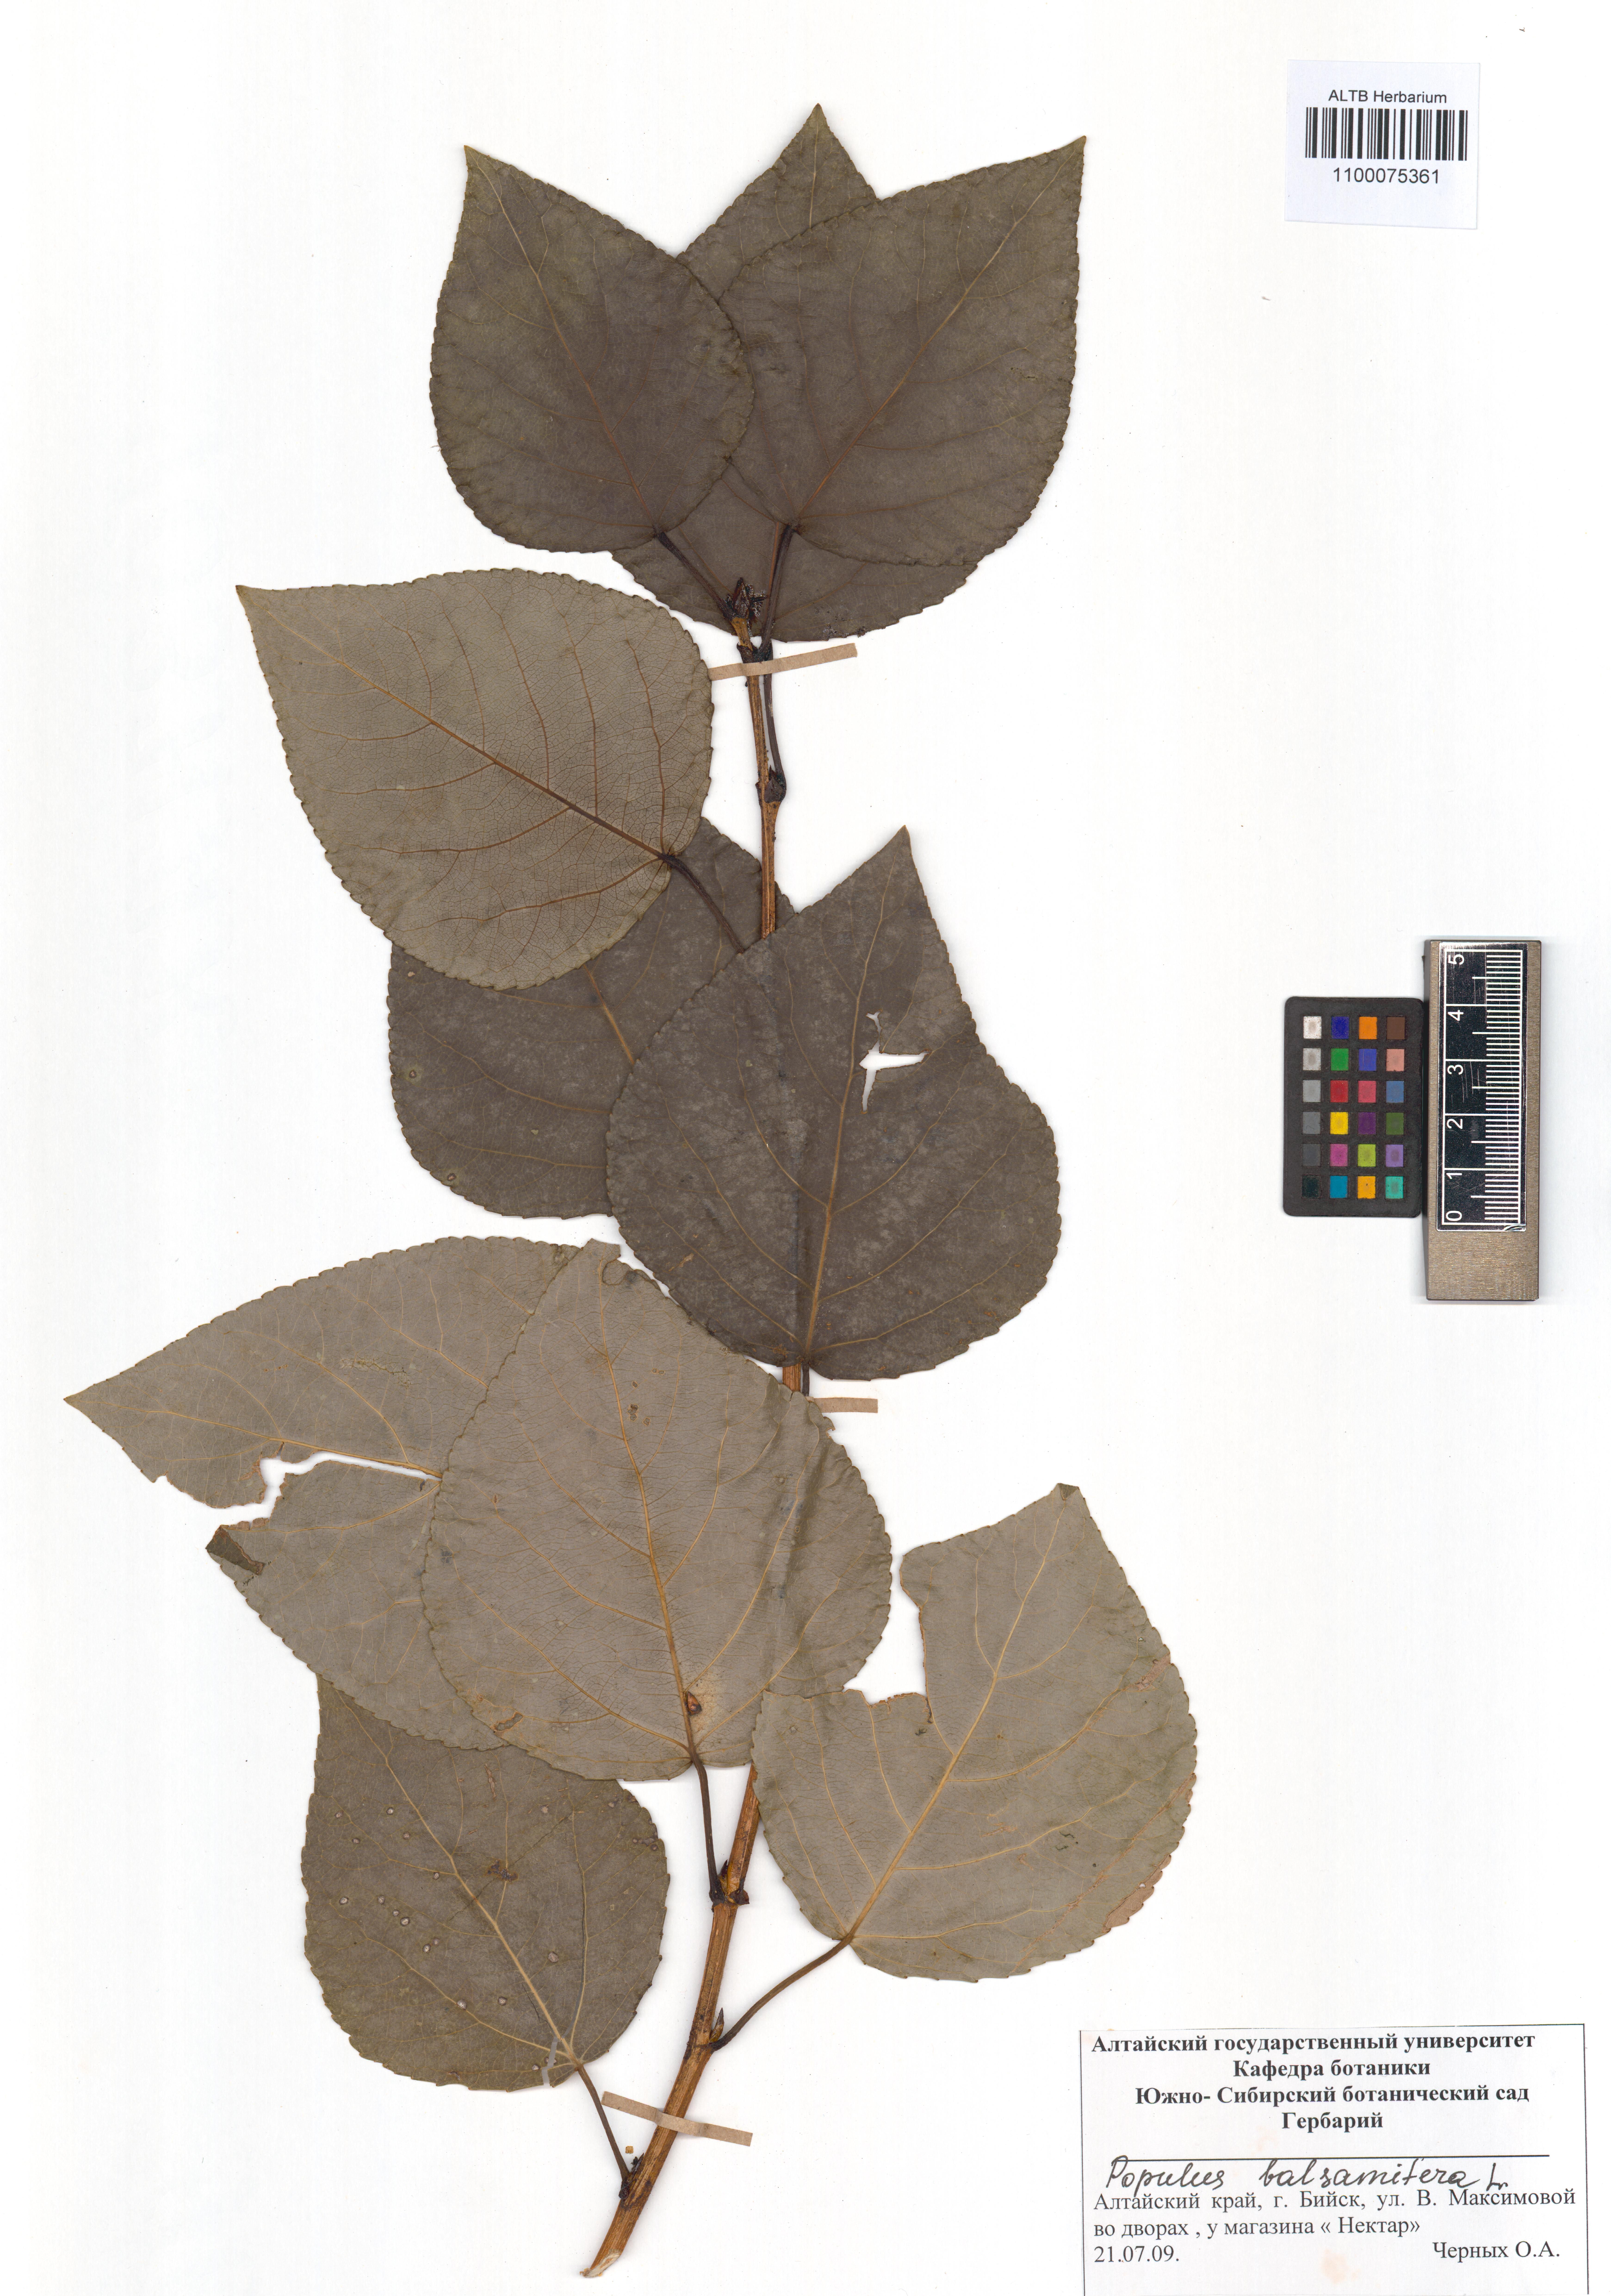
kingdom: Plantae
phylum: Tracheophyta
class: Magnoliopsida
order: Malpighiales
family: Salicaceae
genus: Populus
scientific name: Populus balsamifera
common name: Balsam poplar
